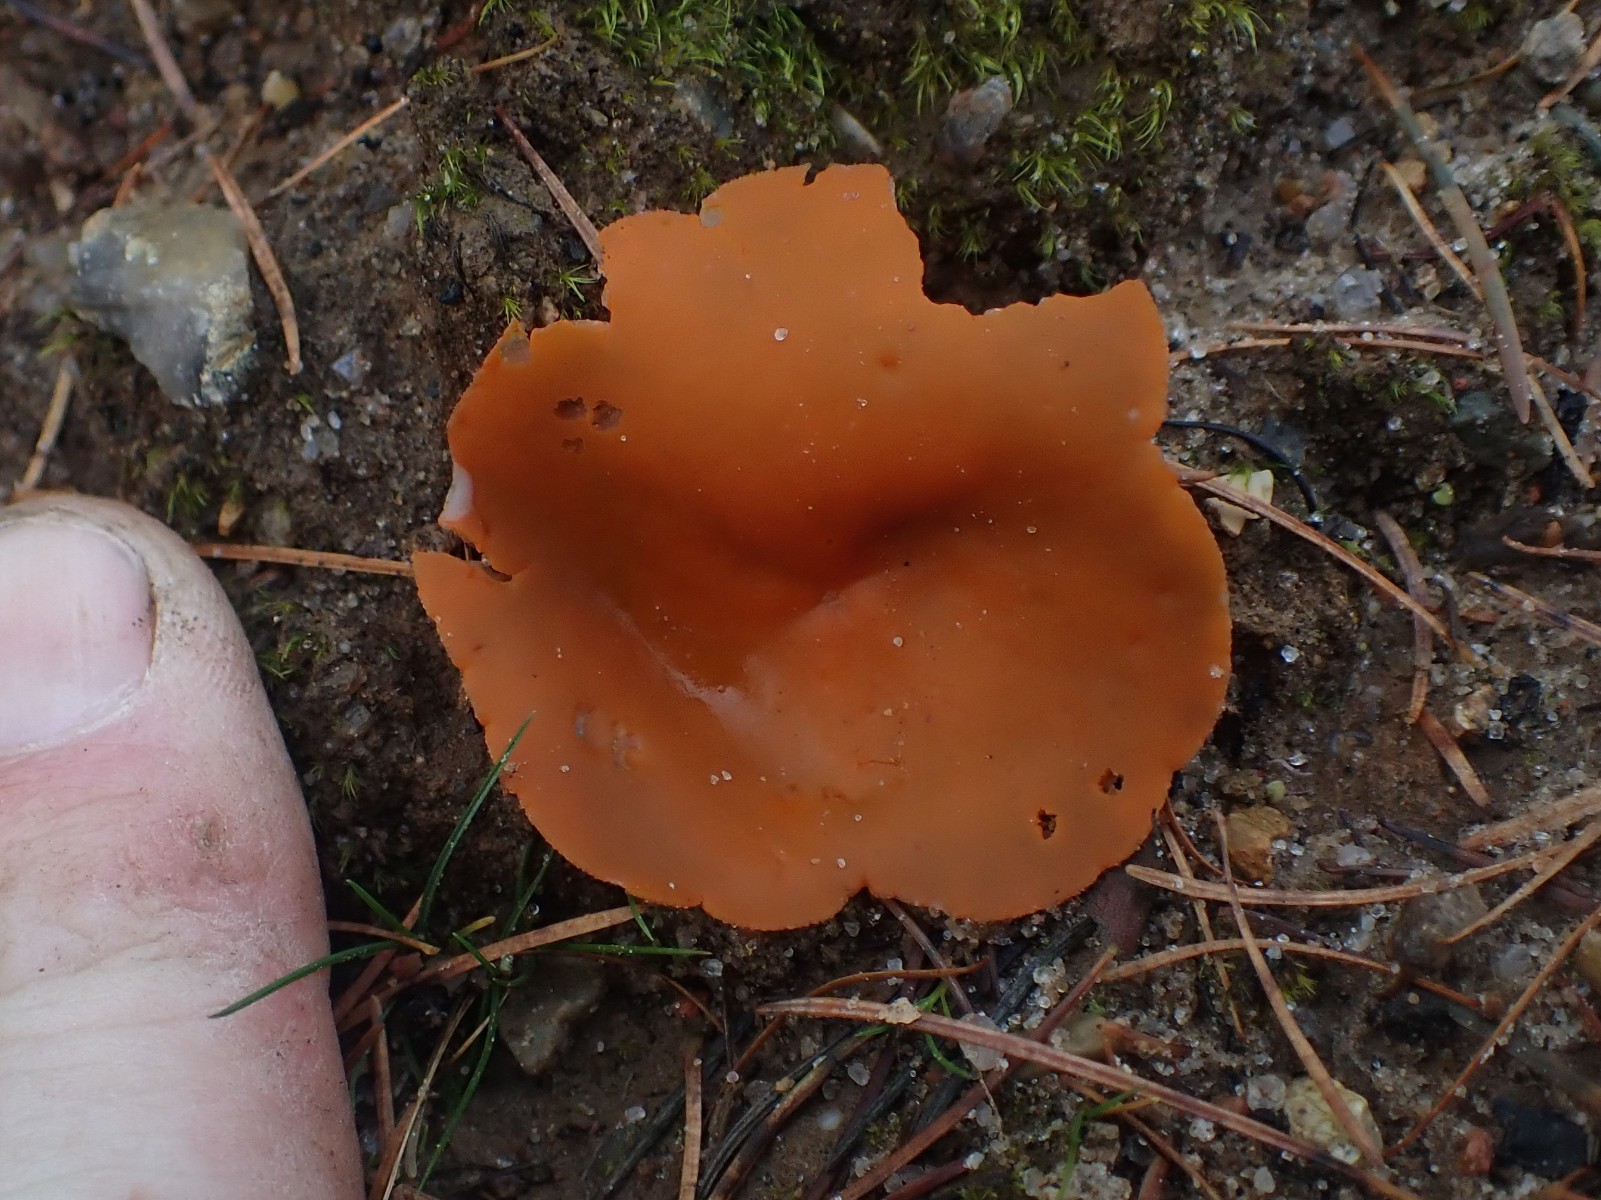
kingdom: Fungi
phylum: Ascomycota
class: Pezizomycetes
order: Pezizales
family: Pyronemataceae
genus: Aleuria
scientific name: Aleuria aurantia
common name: almindelig orangebæger
